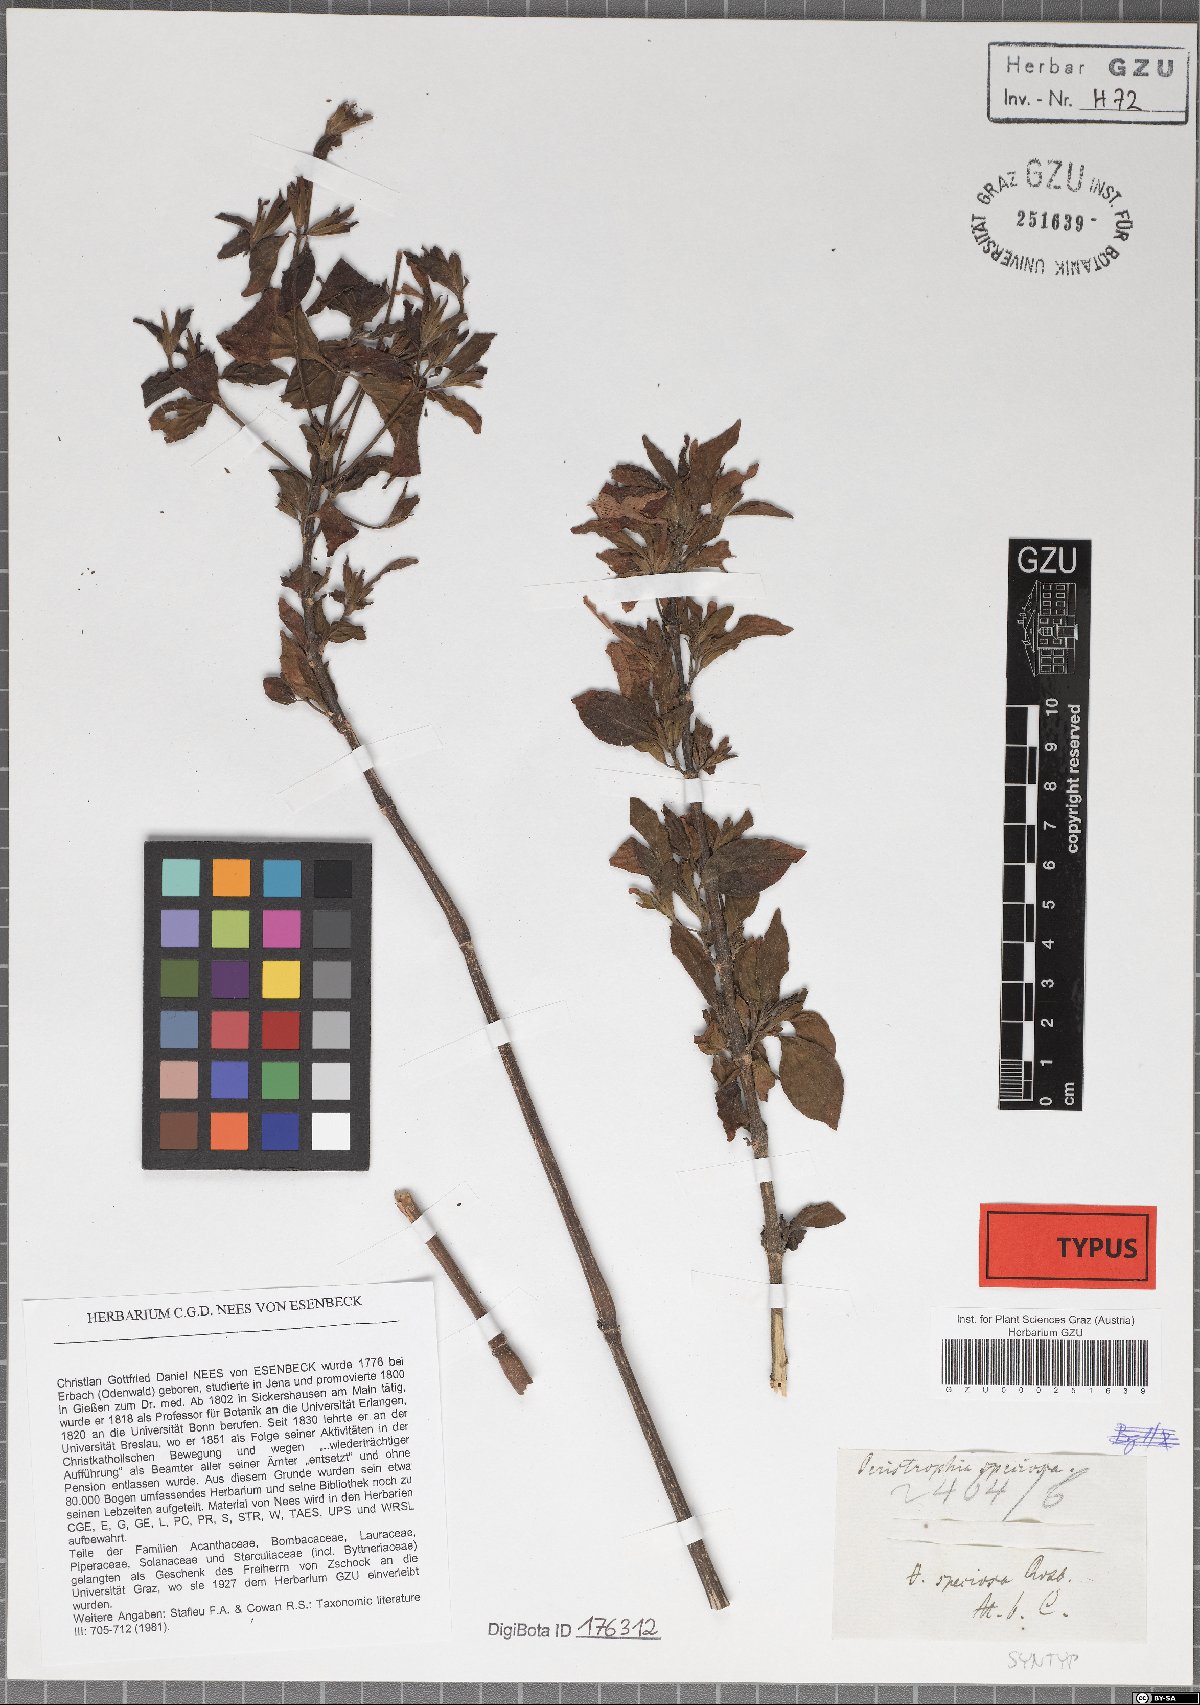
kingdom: Plantae
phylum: Tracheophyta
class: Magnoliopsida
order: Lamiales
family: Acanthaceae
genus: Dicliptera
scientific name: Dicliptera raui
